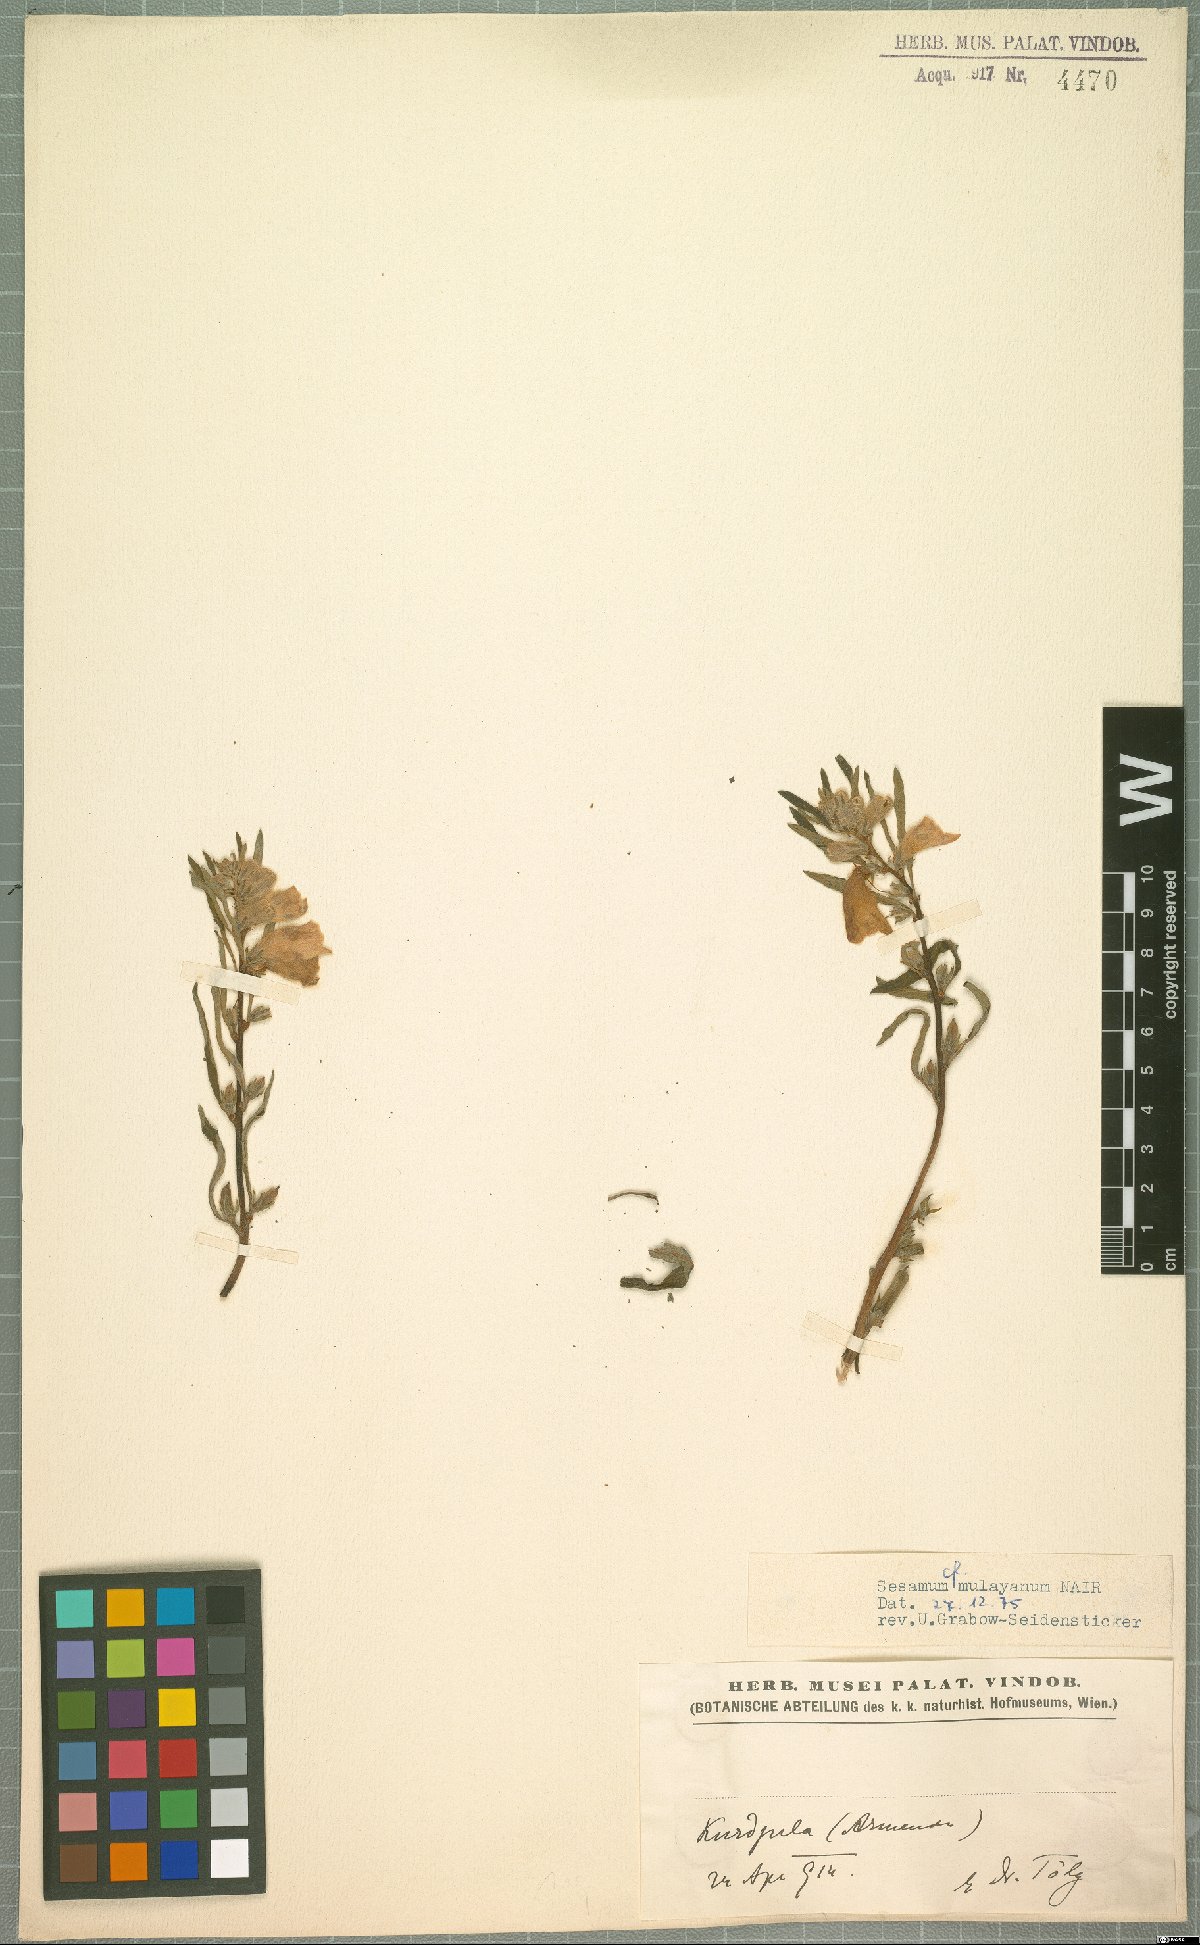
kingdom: Plantae
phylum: Tracheophyta
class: Magnoliopsida
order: Lamiales
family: Pedaliaceae
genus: Sesamum
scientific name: Sesamum indicum
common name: Sesame
